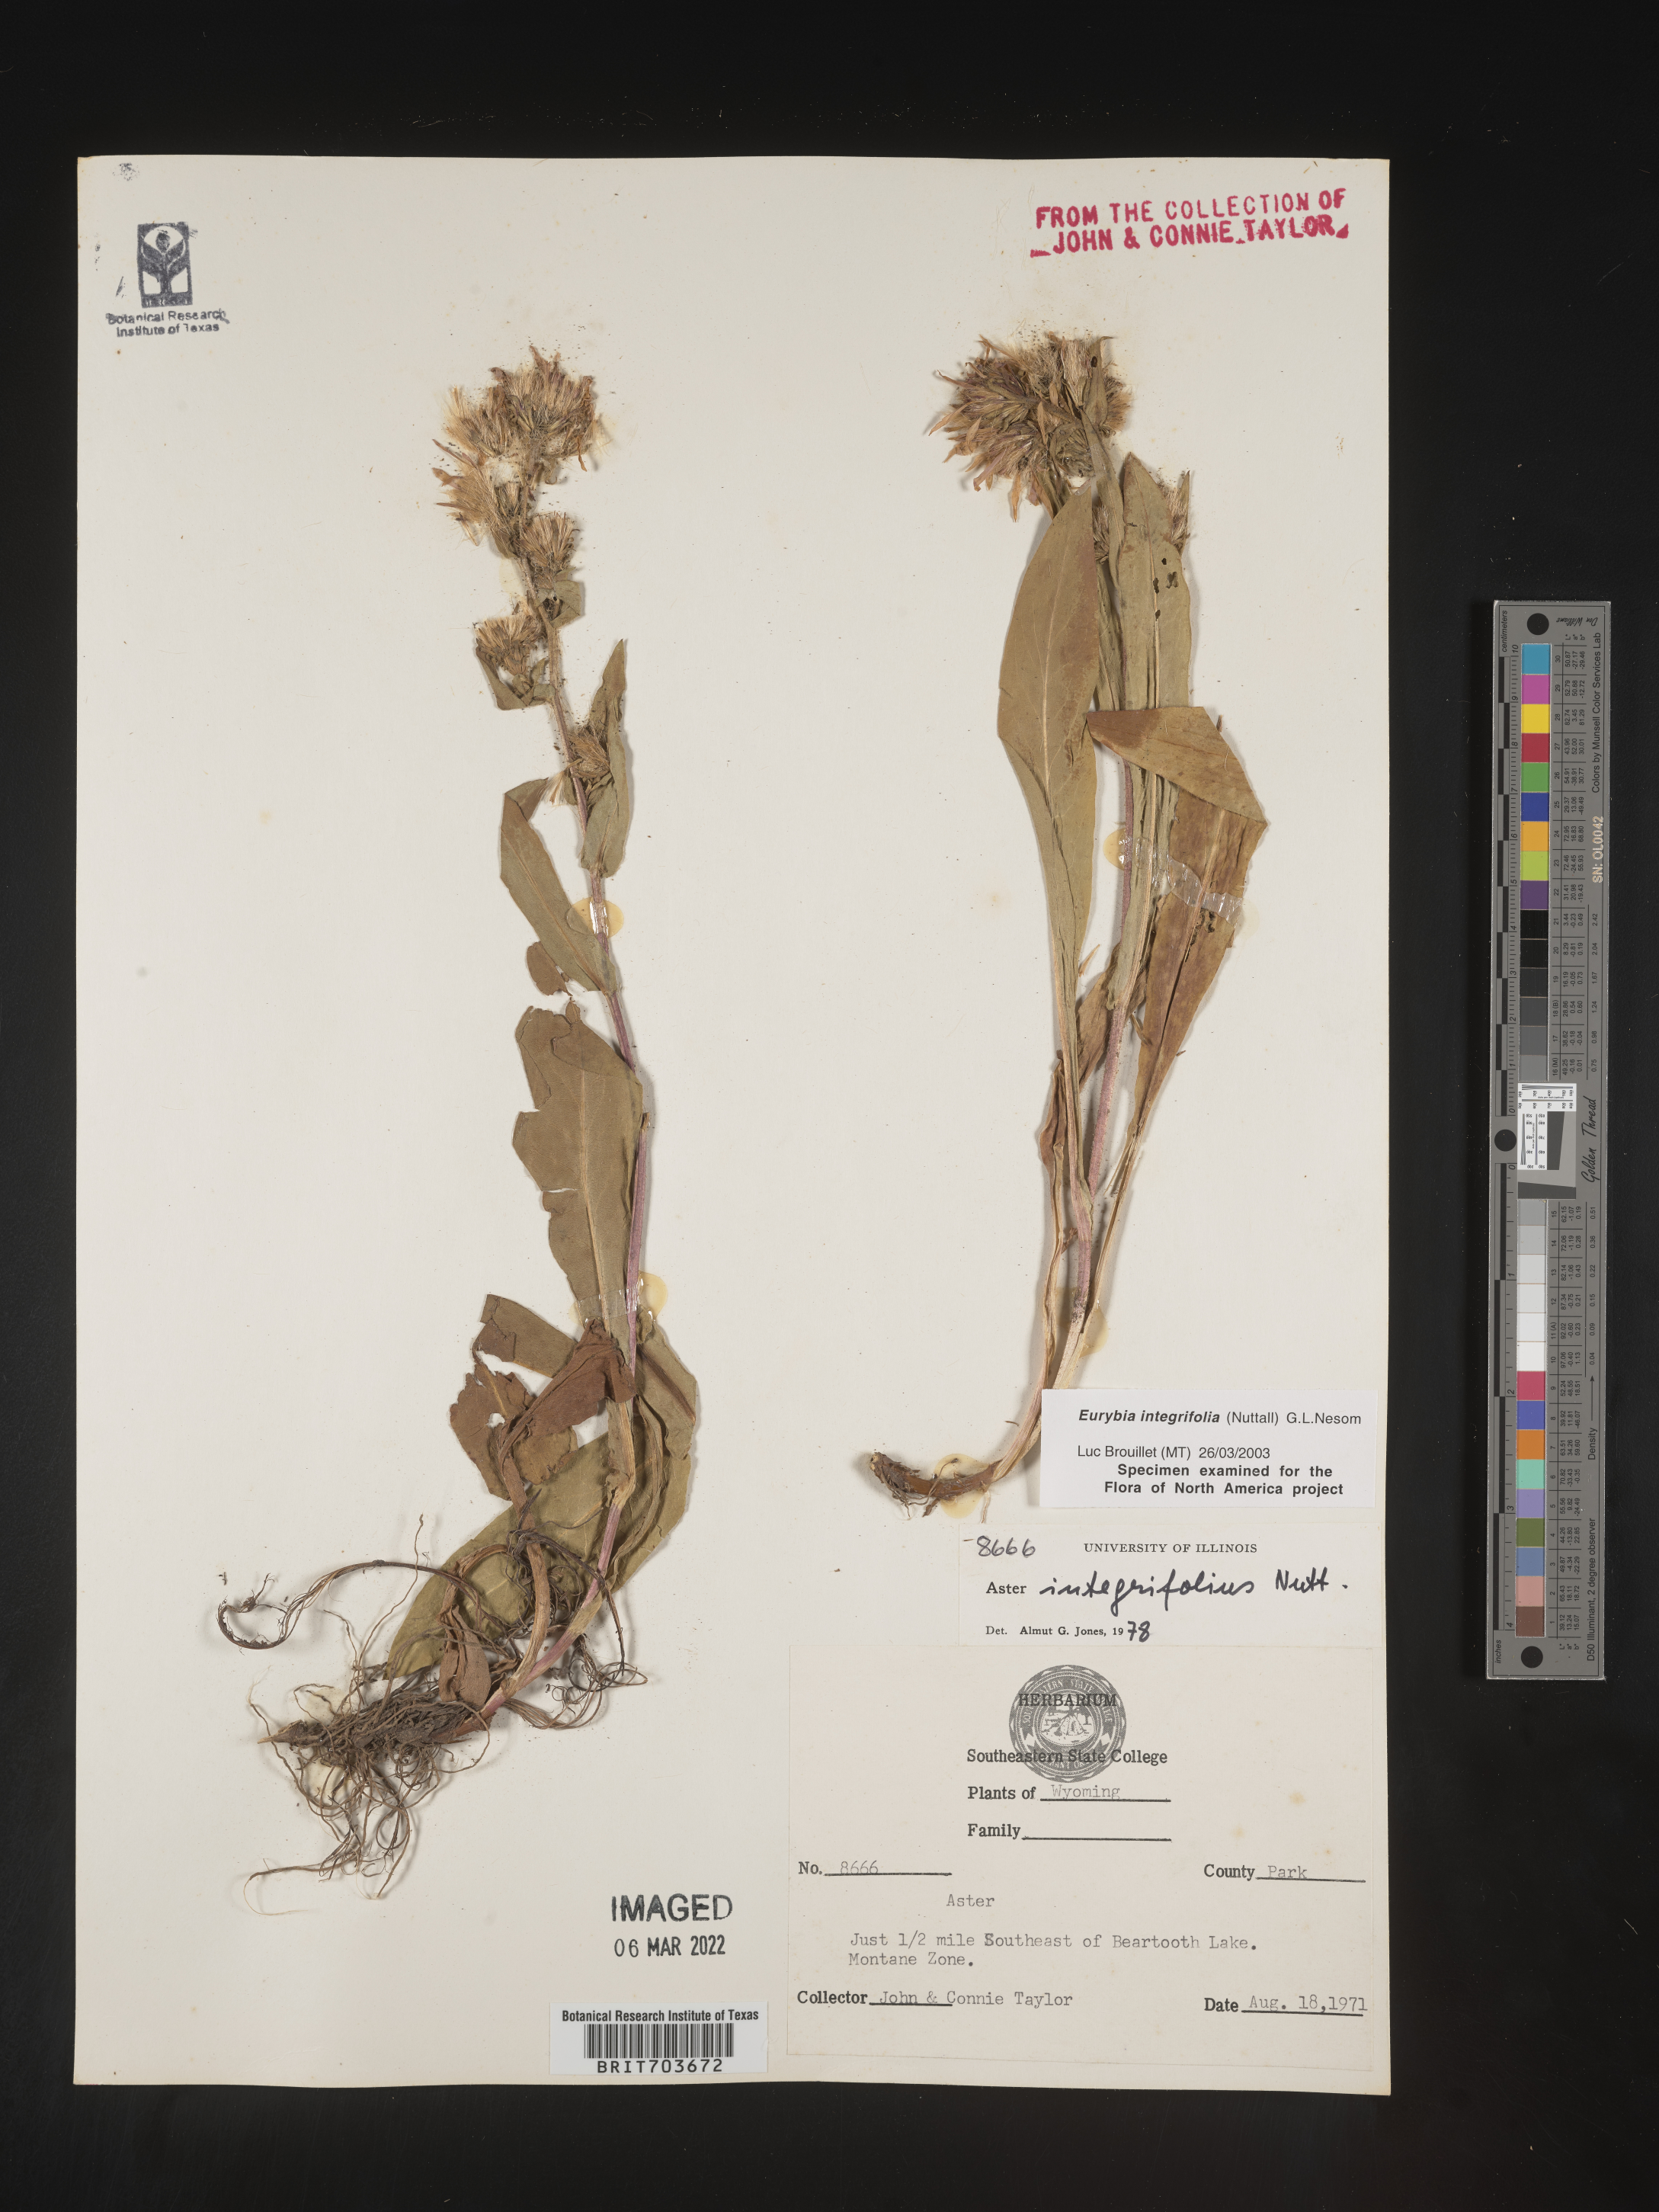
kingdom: Plantae
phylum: Tracheophyta
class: Magnoliopsida
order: Asterales
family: Asteraceae
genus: Eurybia
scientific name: Eurybia integrifolia
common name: Thick-stem aster
